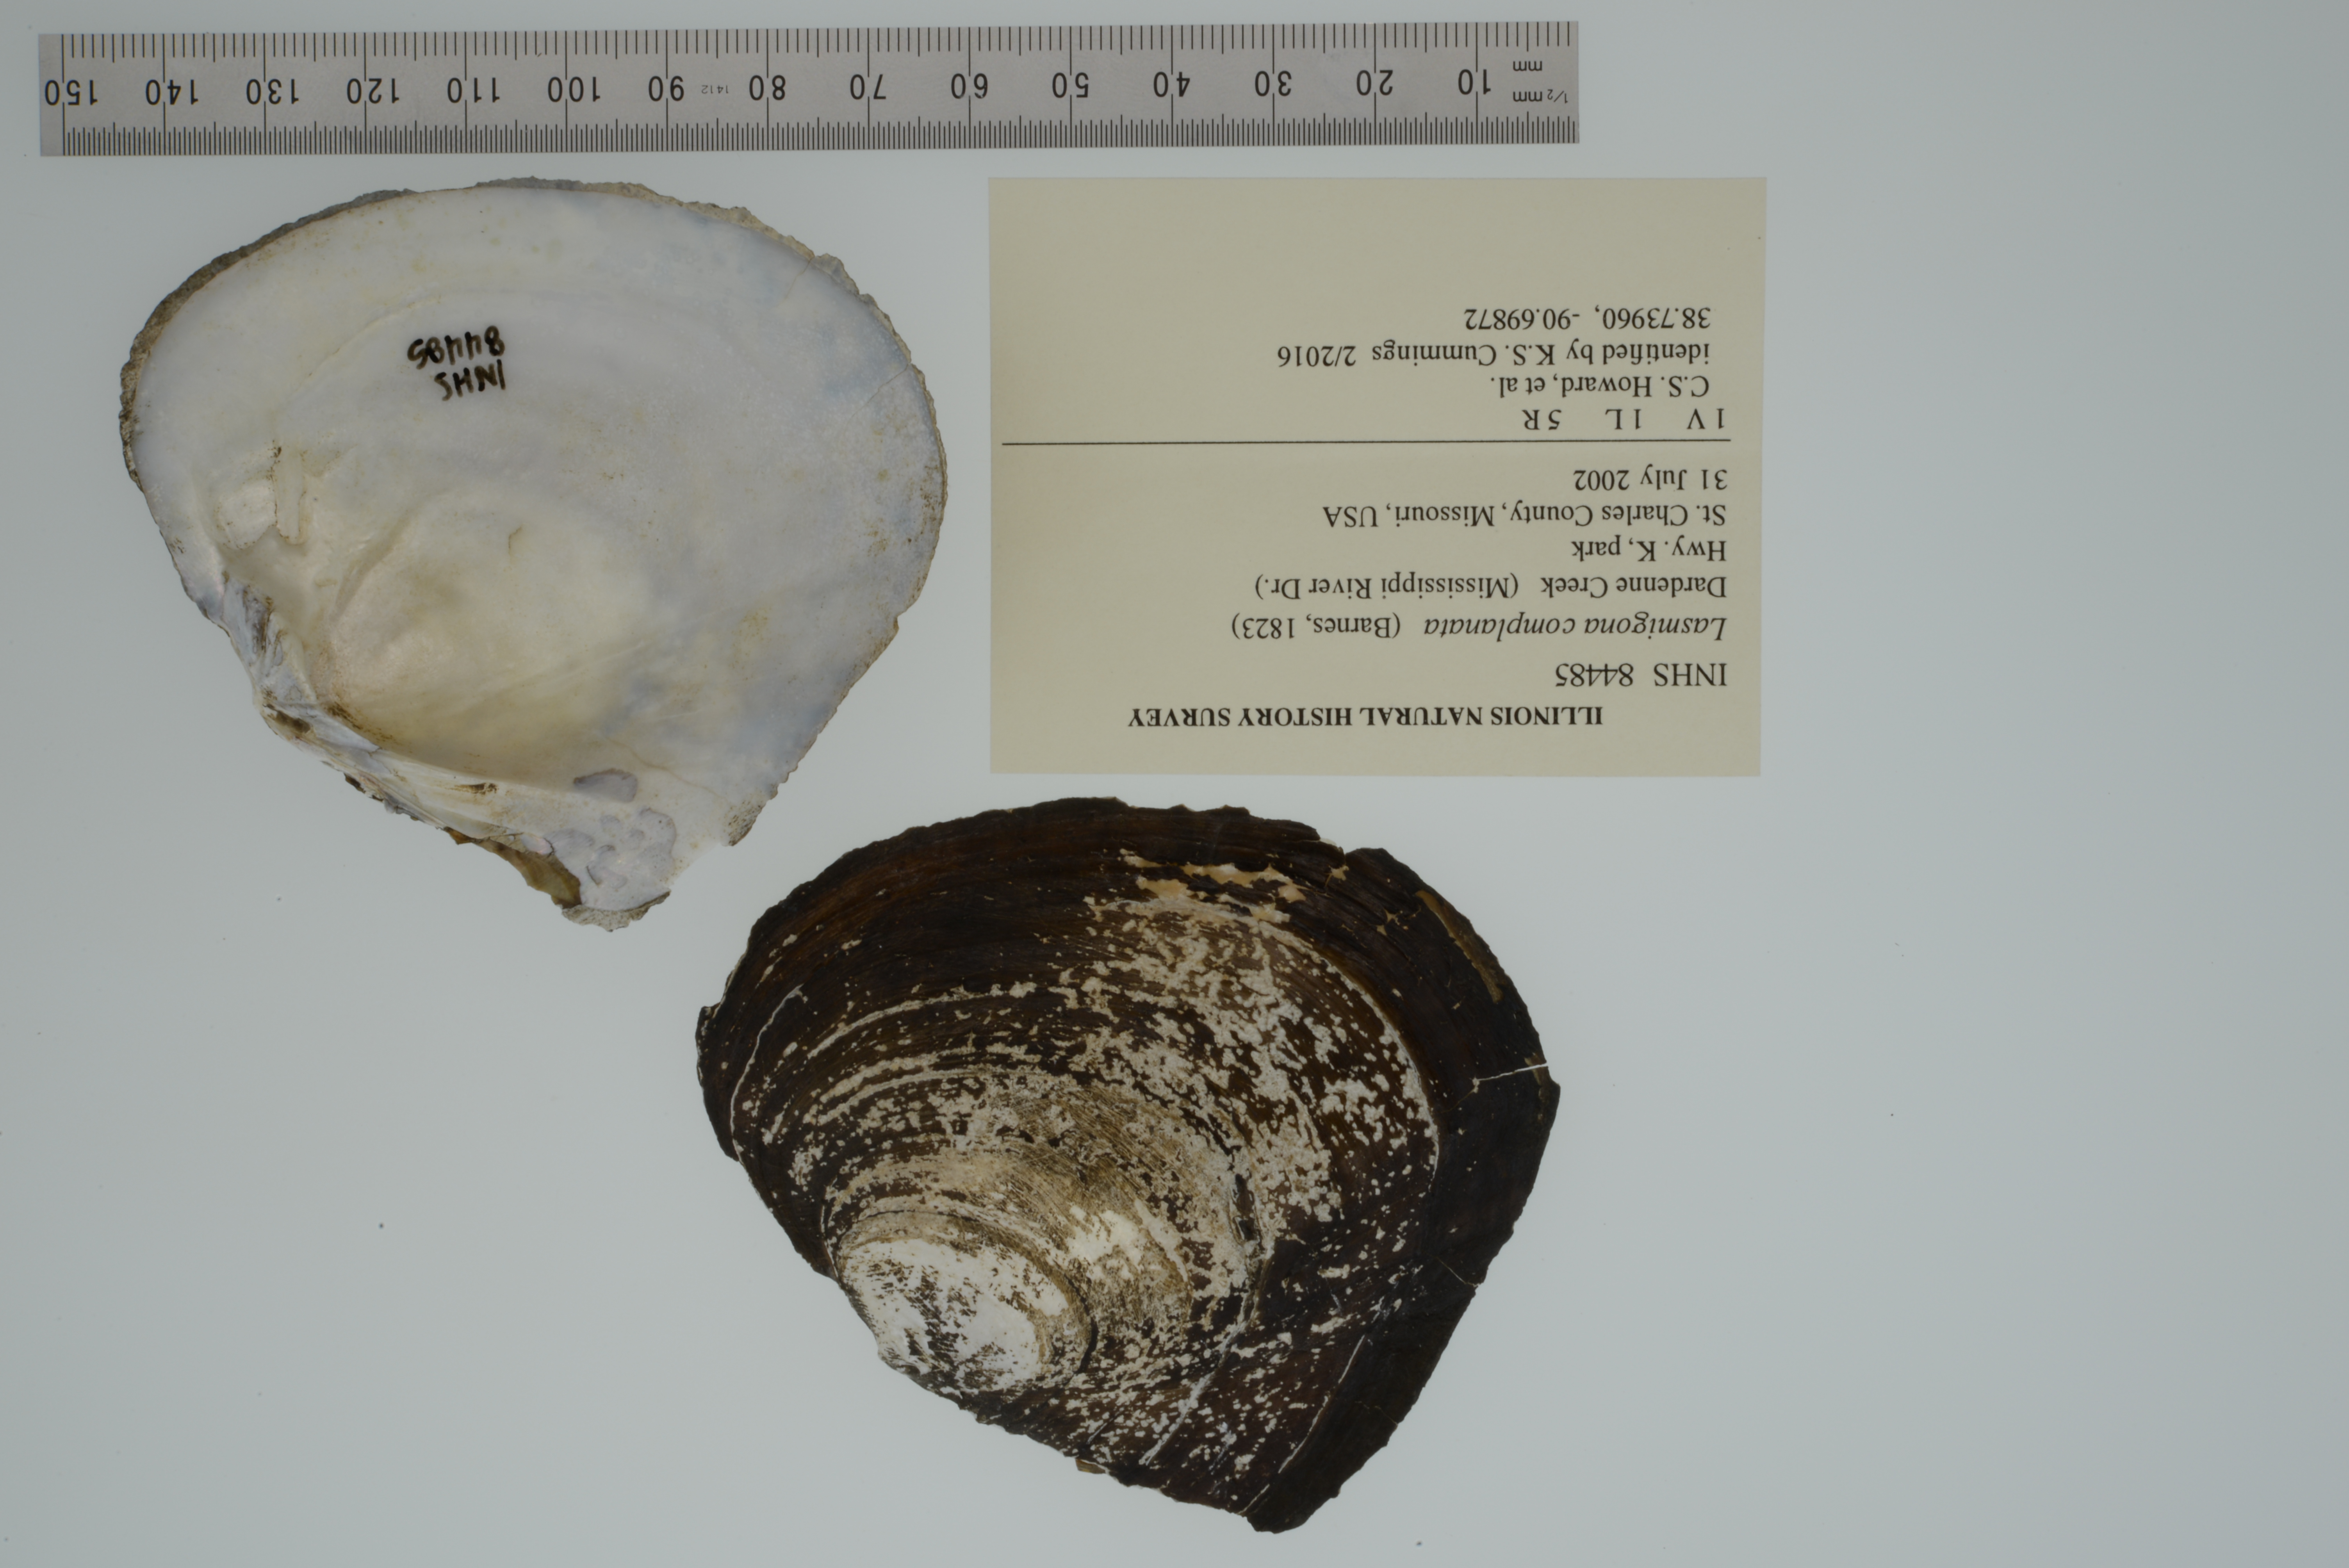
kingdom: Animalia
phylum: Mollusca
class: Bivalvia
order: Unionida
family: Unionidae
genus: Lasmigona
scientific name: Lasmigona complanata
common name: White heelsplitter
